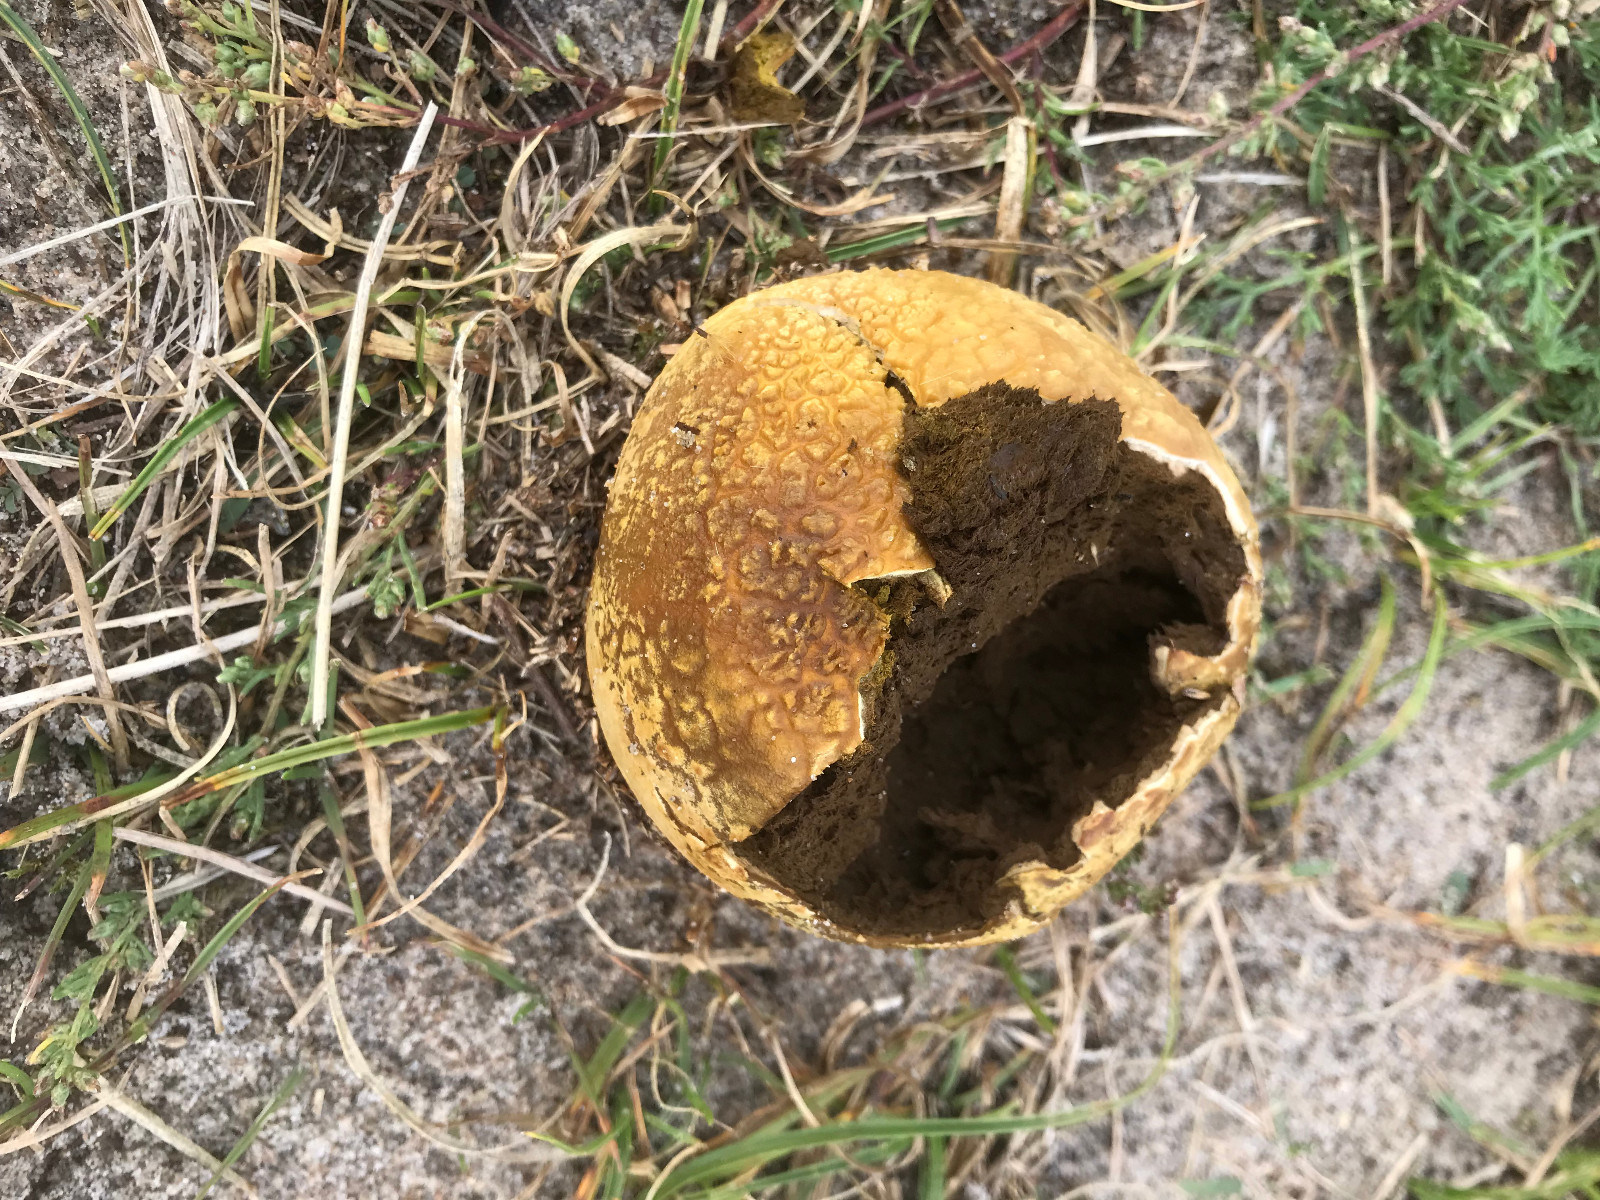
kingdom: Fungi
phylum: Basidiomycota
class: Agaricomycetes
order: Agaricales
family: Lycoperdaceae
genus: Bovistella
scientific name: Bovistella utriformis
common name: skællet støvbold
